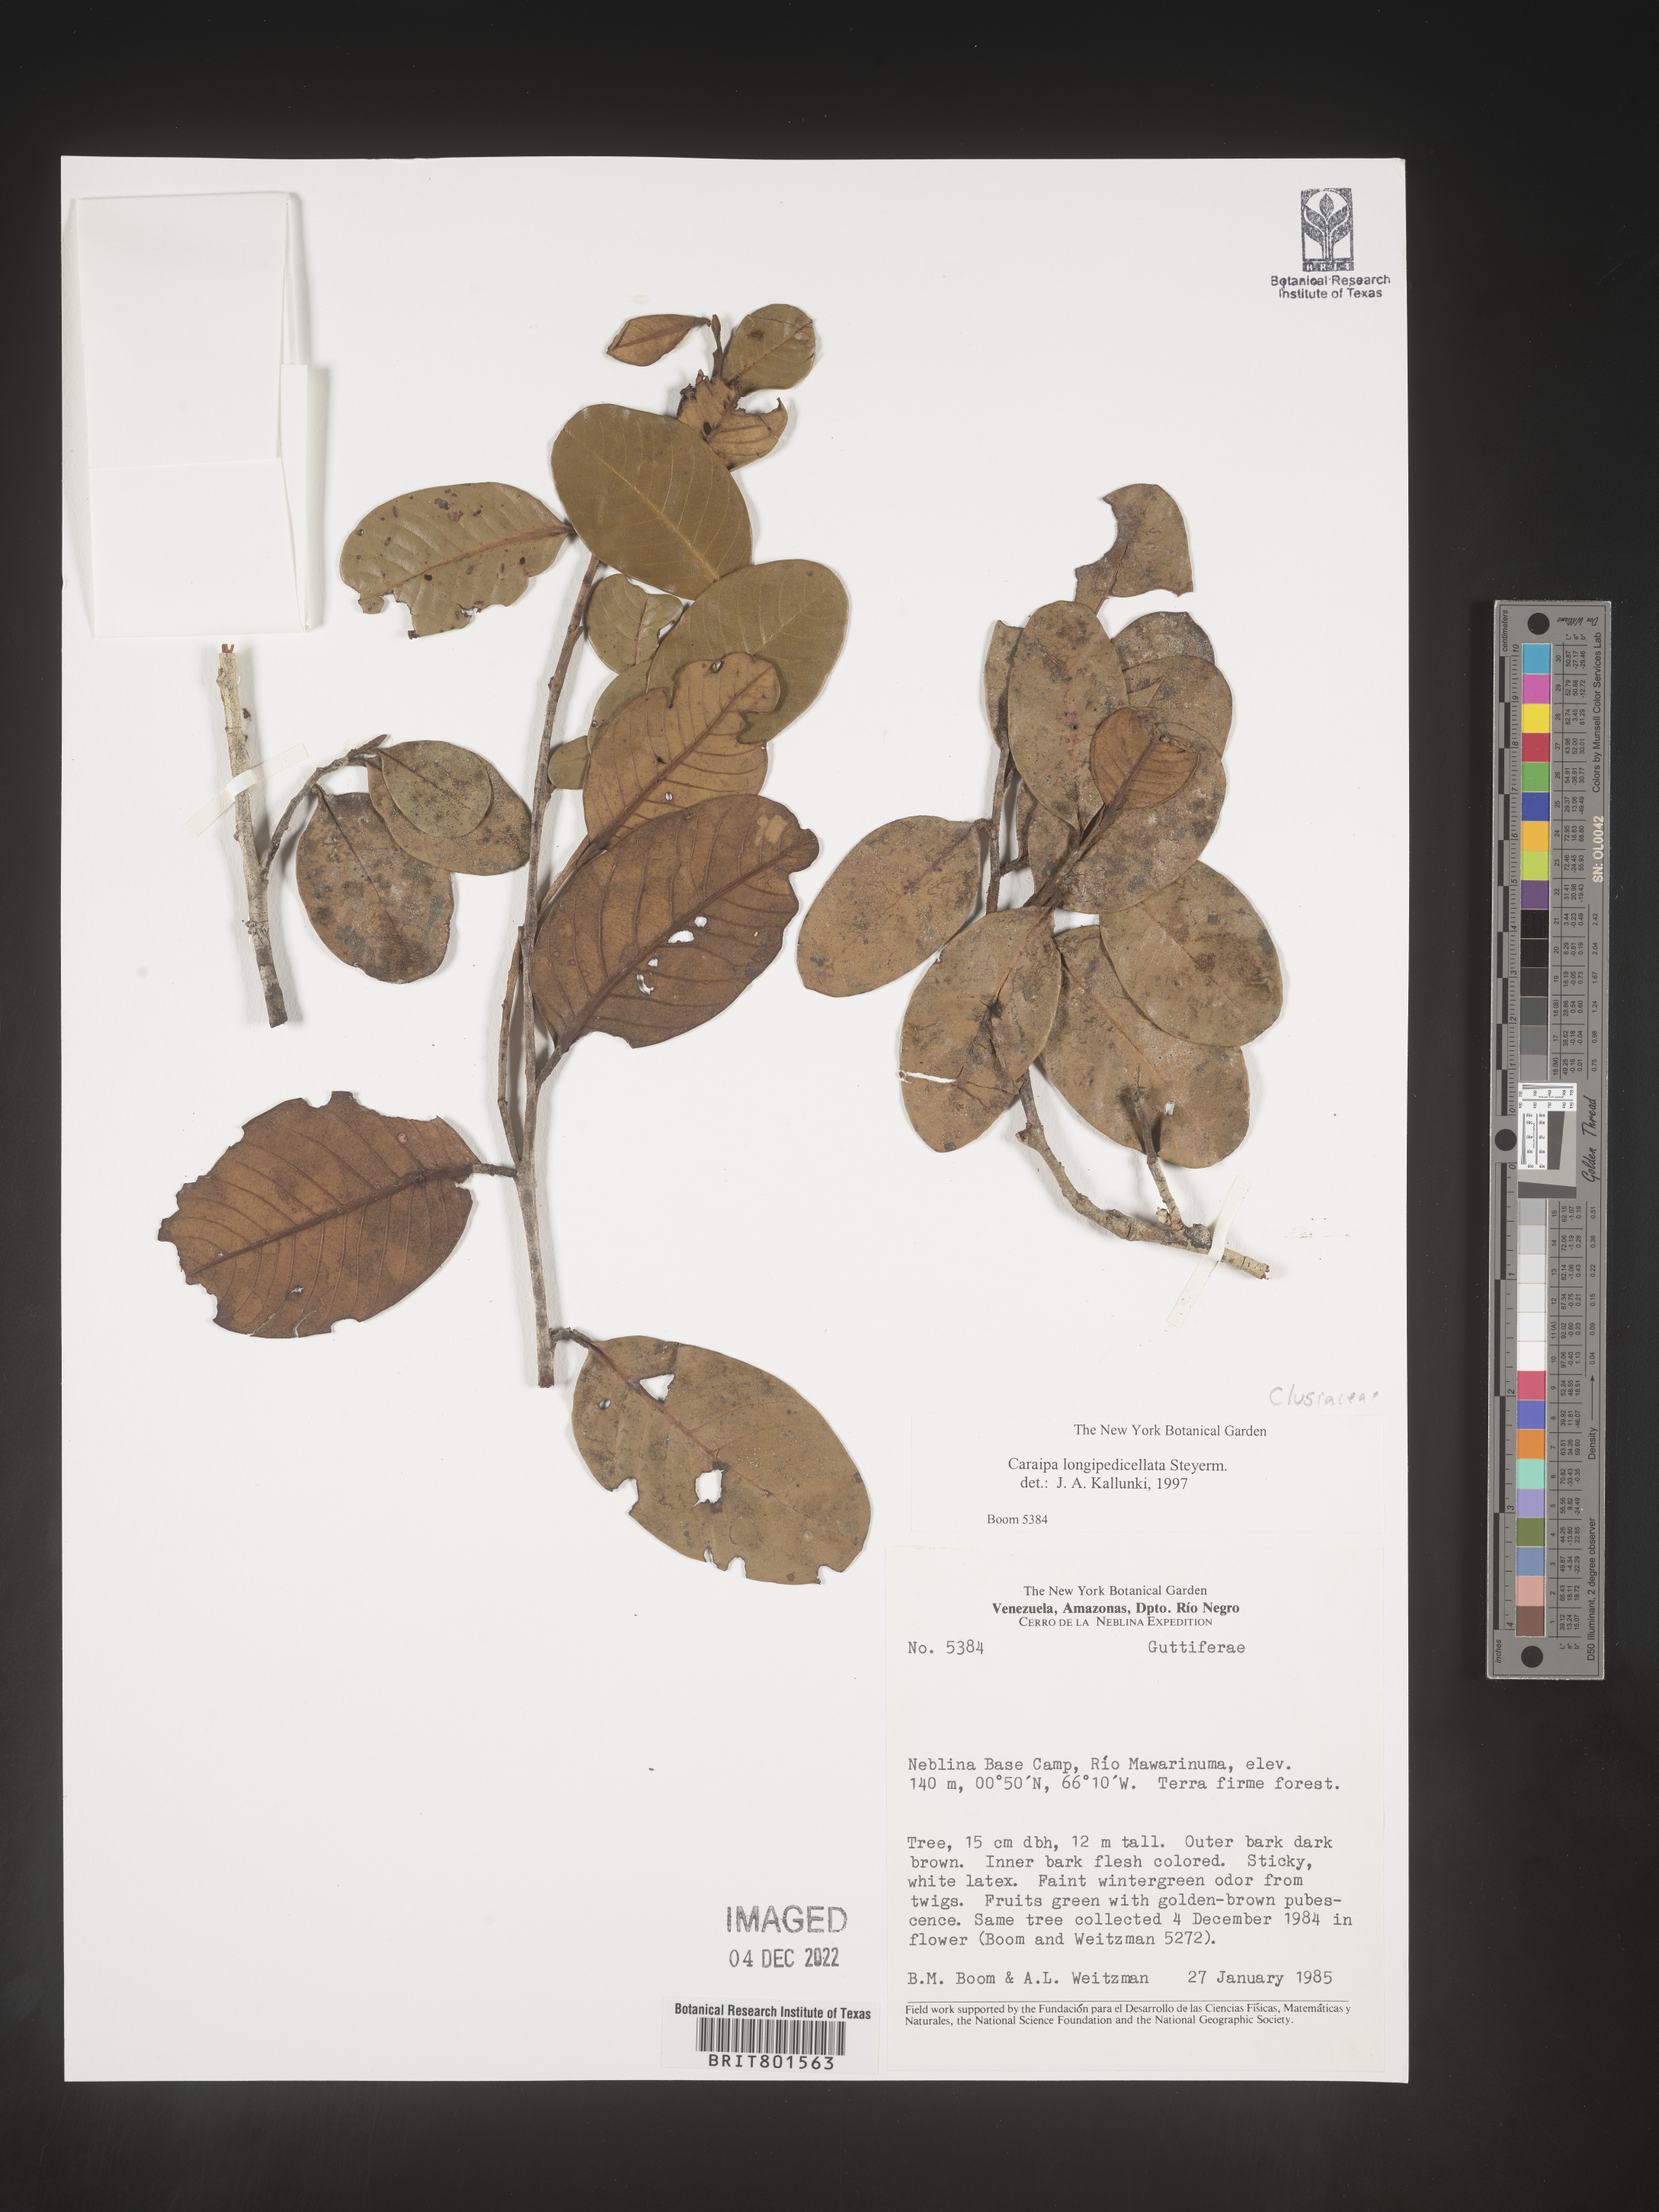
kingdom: Plantae
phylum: Tracheophyta
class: Magnoliopsida
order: Malpighiales
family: Calophyllaceae
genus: Caraipa
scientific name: Caraipa
